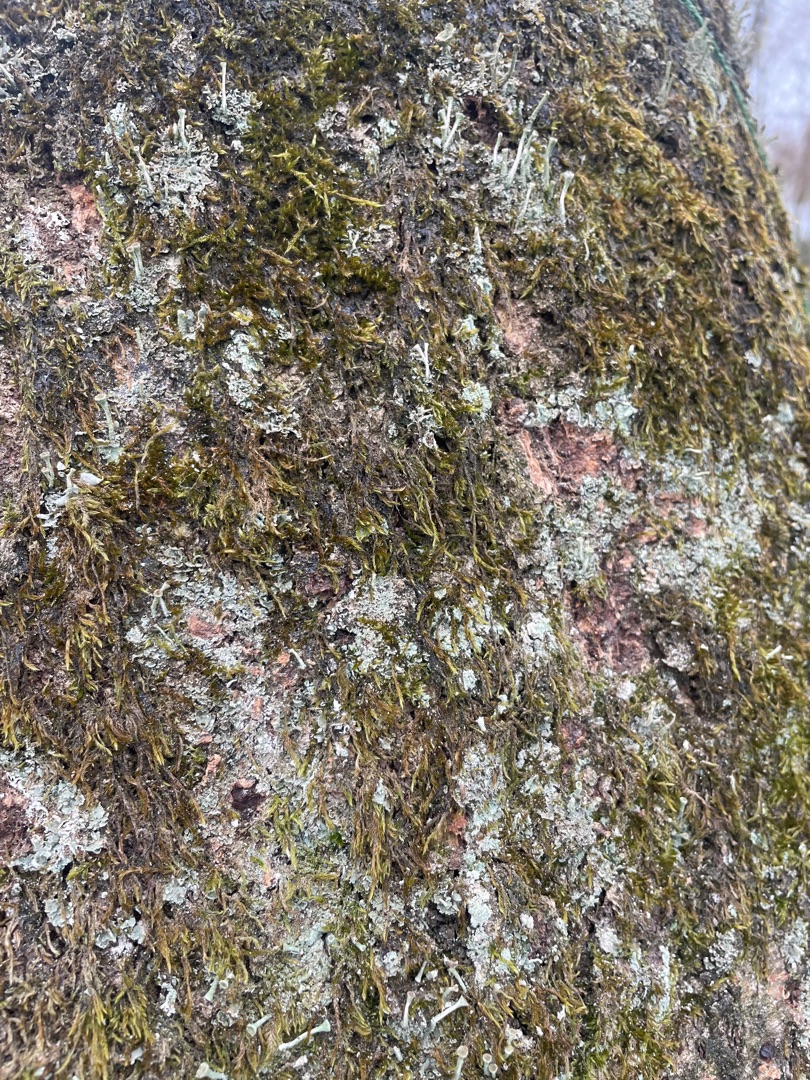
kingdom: Fungi
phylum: Ascomycota
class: Lecanoromycetes
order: Lecanorales
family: Cladoniaceae
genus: Cladonia
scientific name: Cladonia
